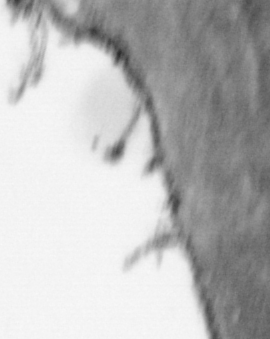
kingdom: Animalia
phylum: Chordata
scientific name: Chordata
